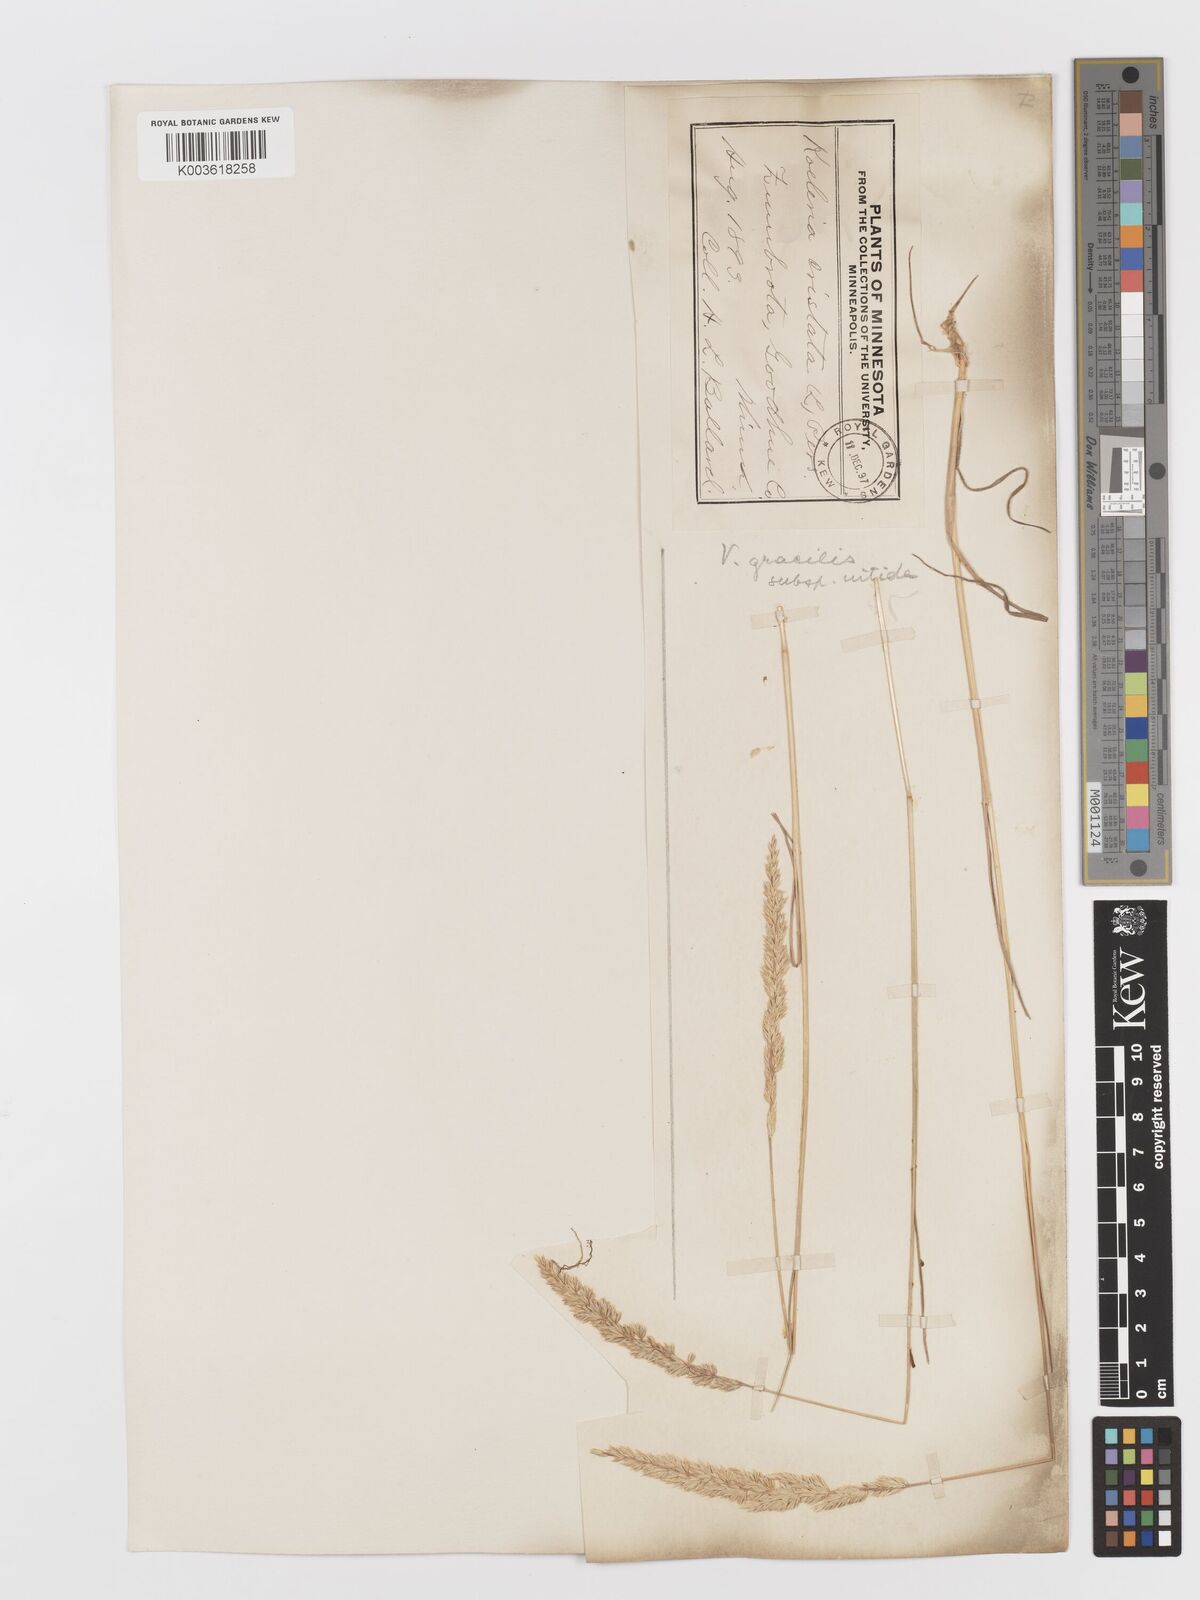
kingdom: Plantae
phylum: Tracheophyta
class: Liliopsida
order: Poales
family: Poaceae
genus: Koeleria
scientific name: Koeleria macrantha
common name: Crested hair-grass
